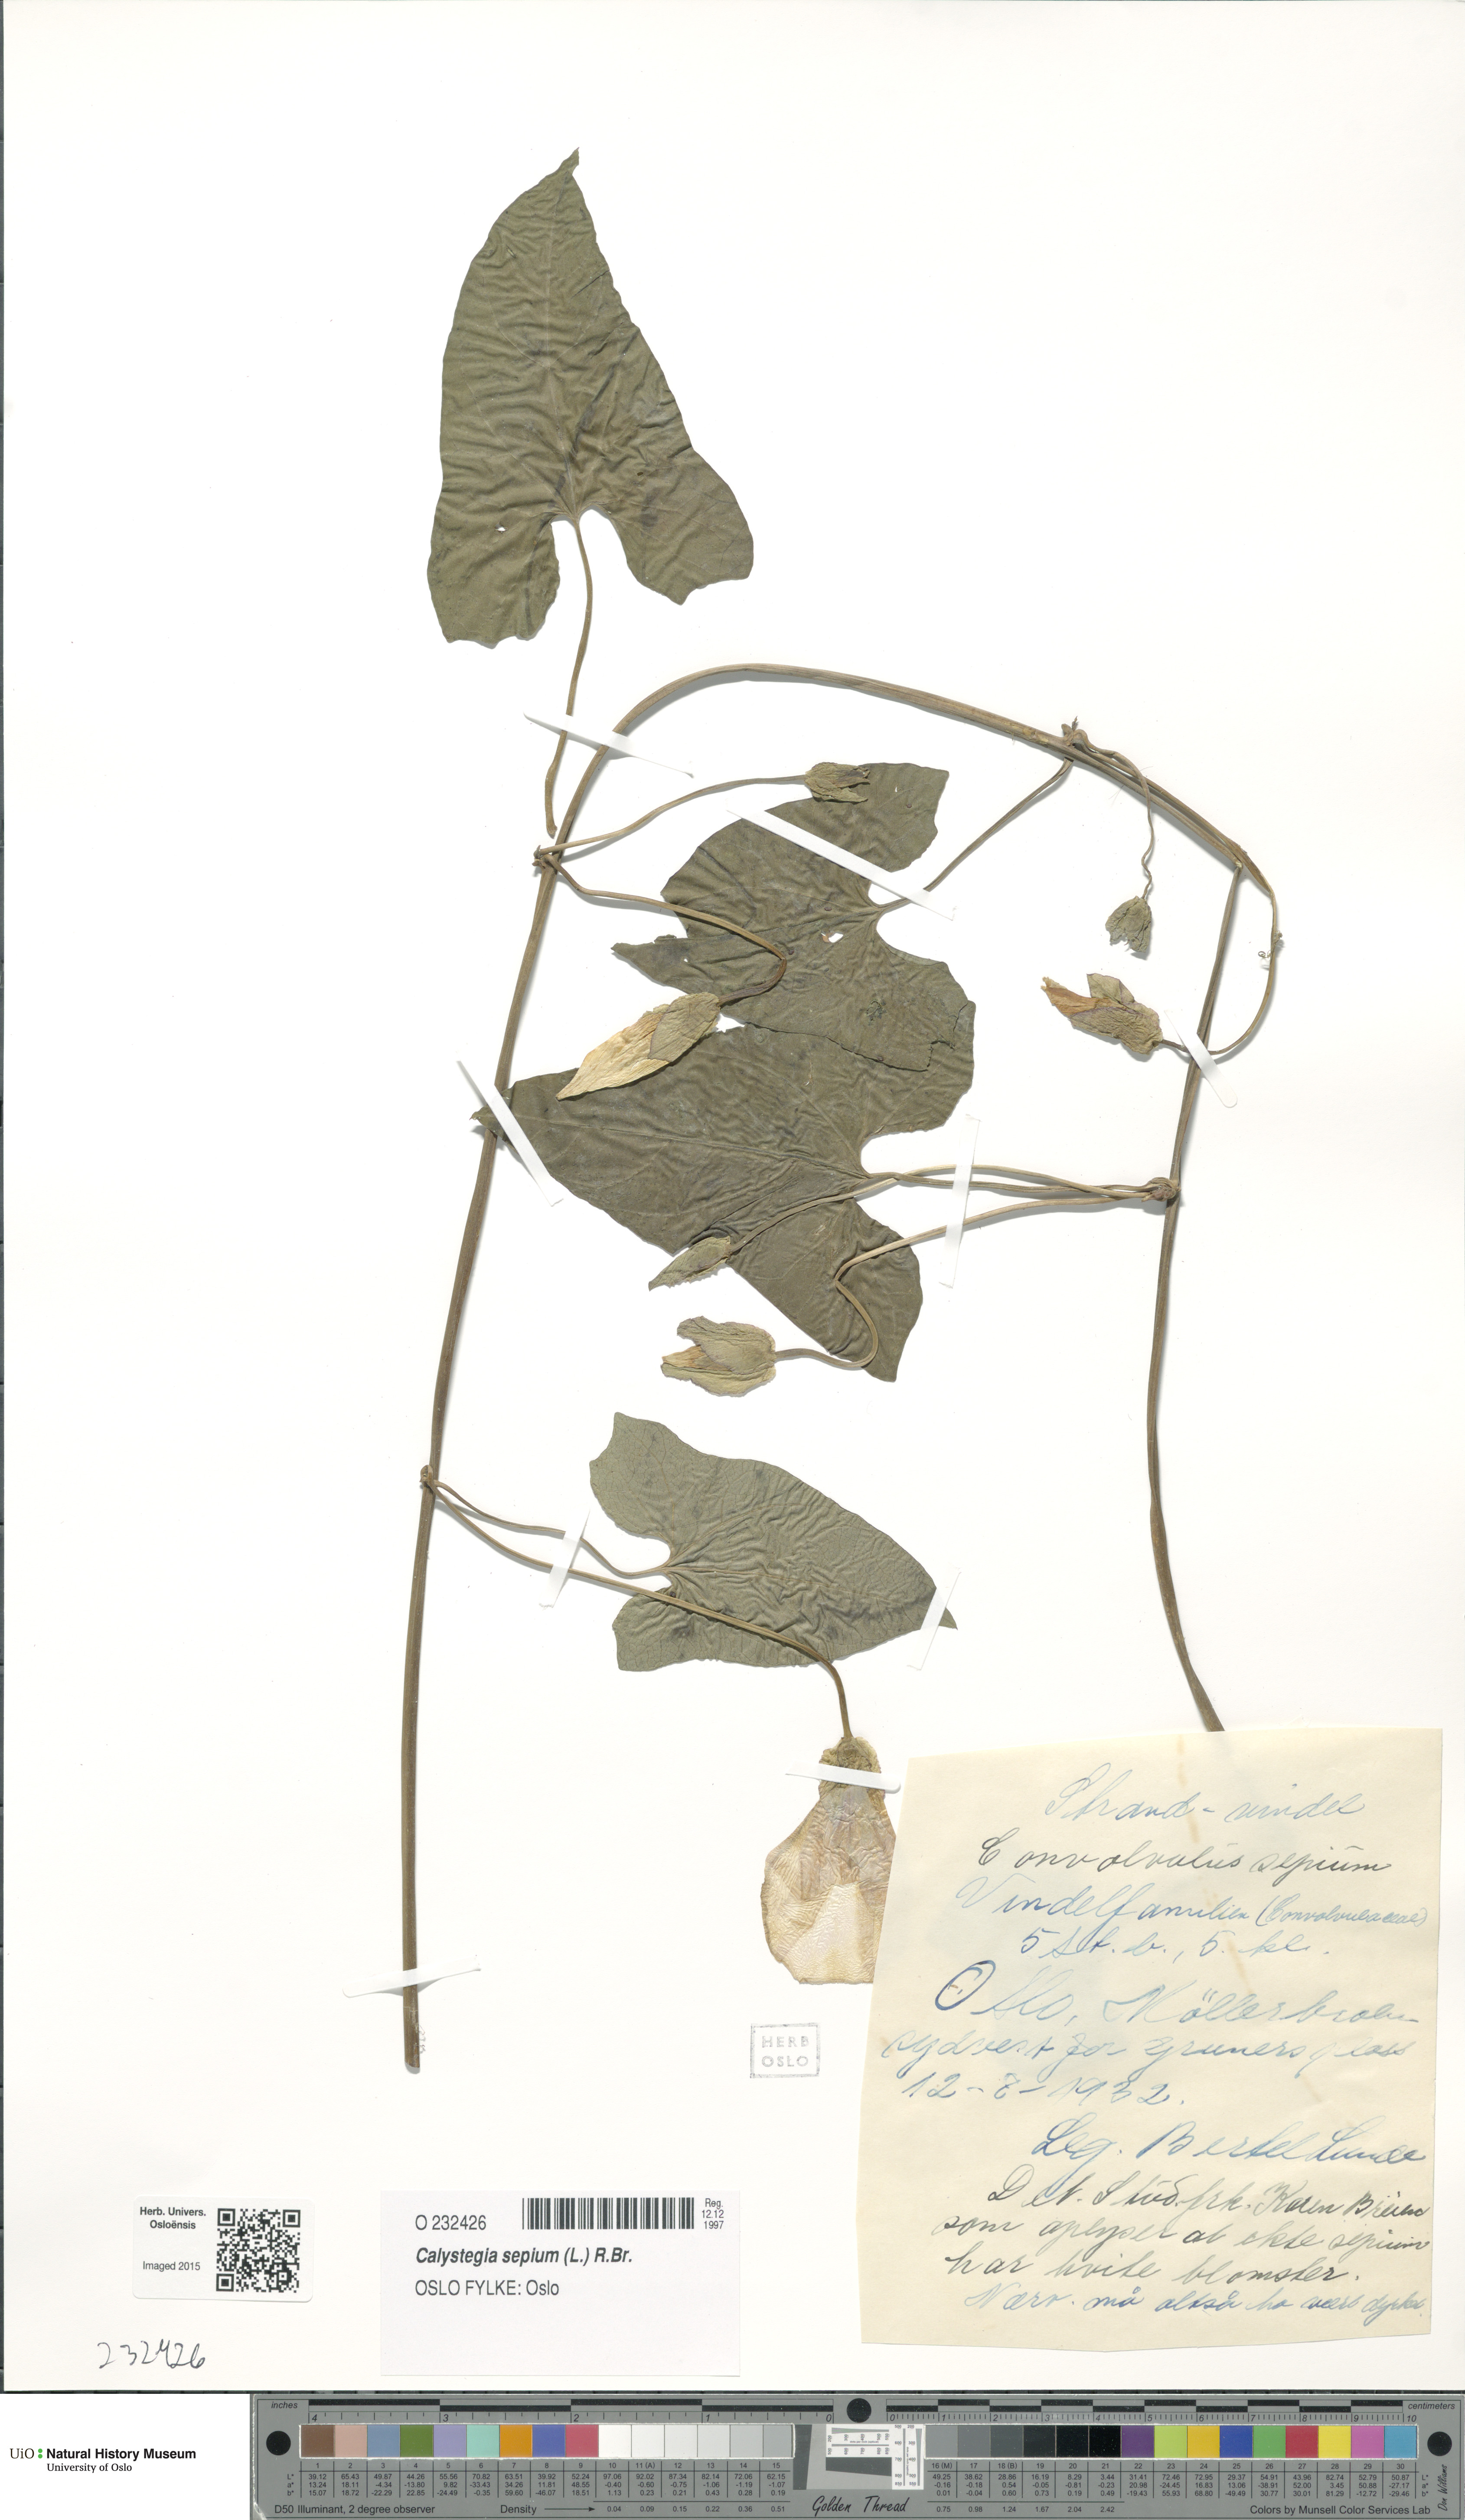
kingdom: Plantae
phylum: Tracheophyta
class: Magnoliopsida
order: Solanales
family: Convolvulaceae
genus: Calystegia
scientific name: Calystegia sepium
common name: Hedge bindweed
